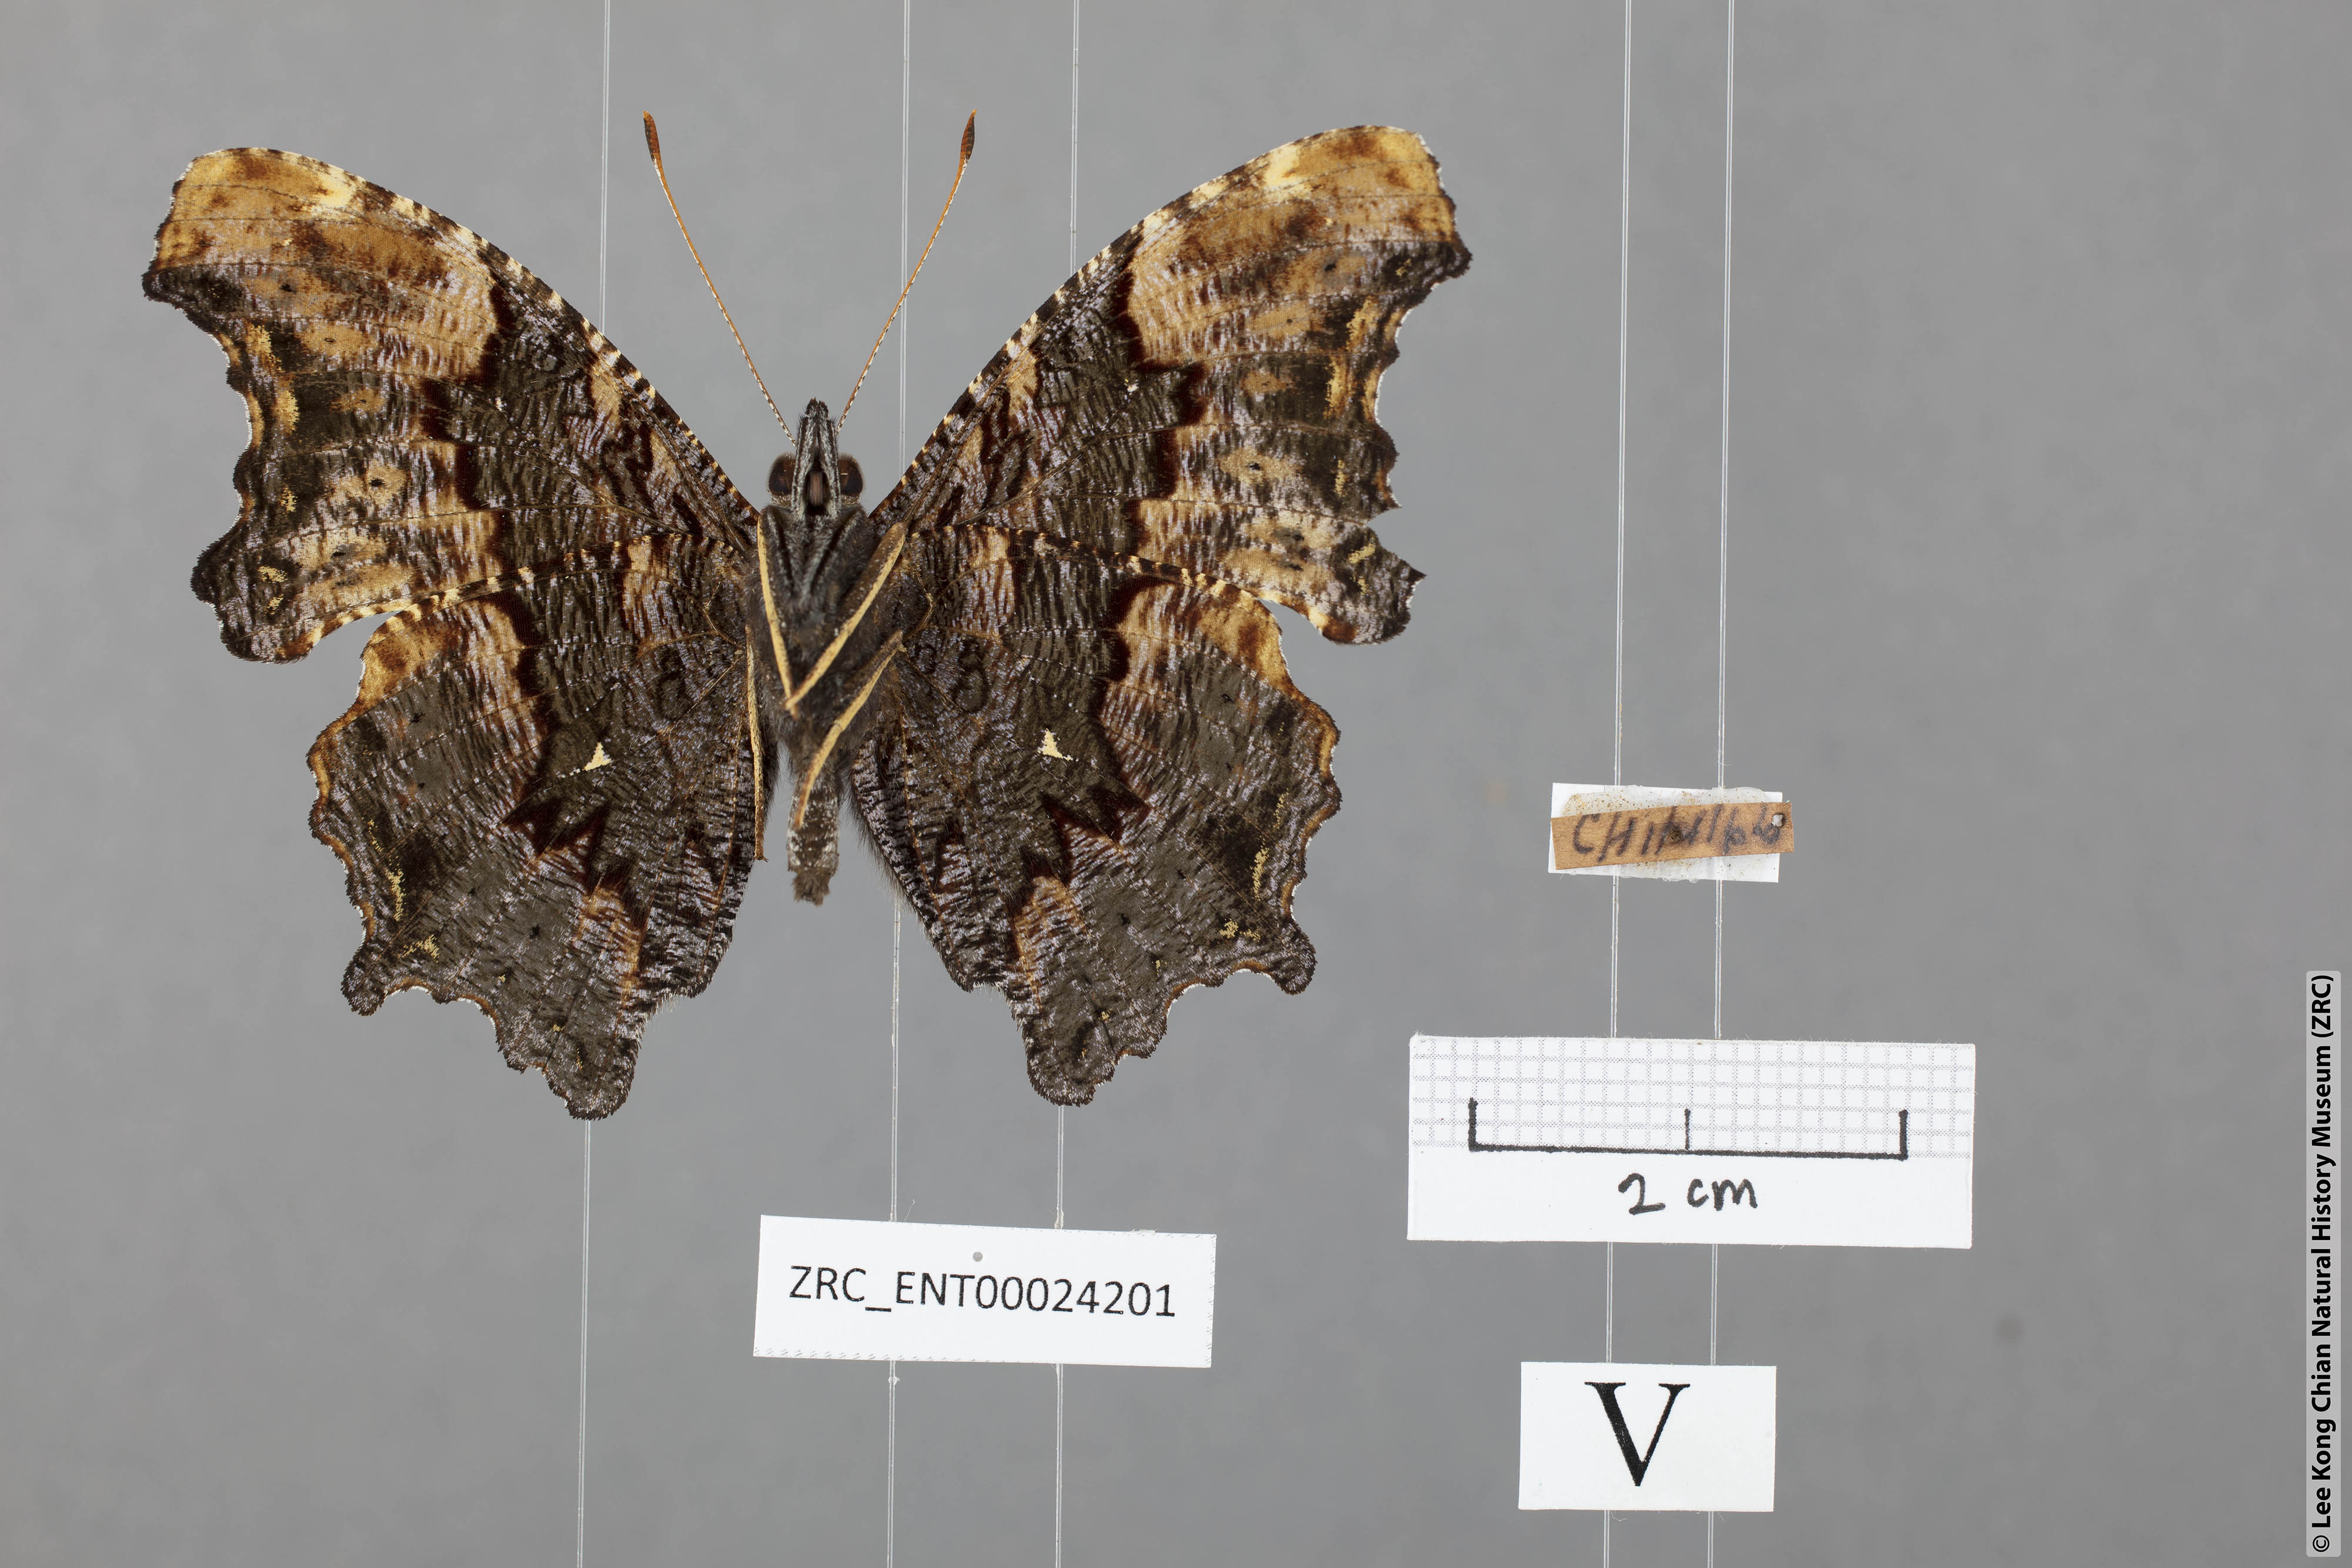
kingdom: Animalia
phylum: Arthropoda
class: Insecta
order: Lepidoptera
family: Nymphalidae
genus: Vanessa
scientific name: Vanessa Kaniska canace
